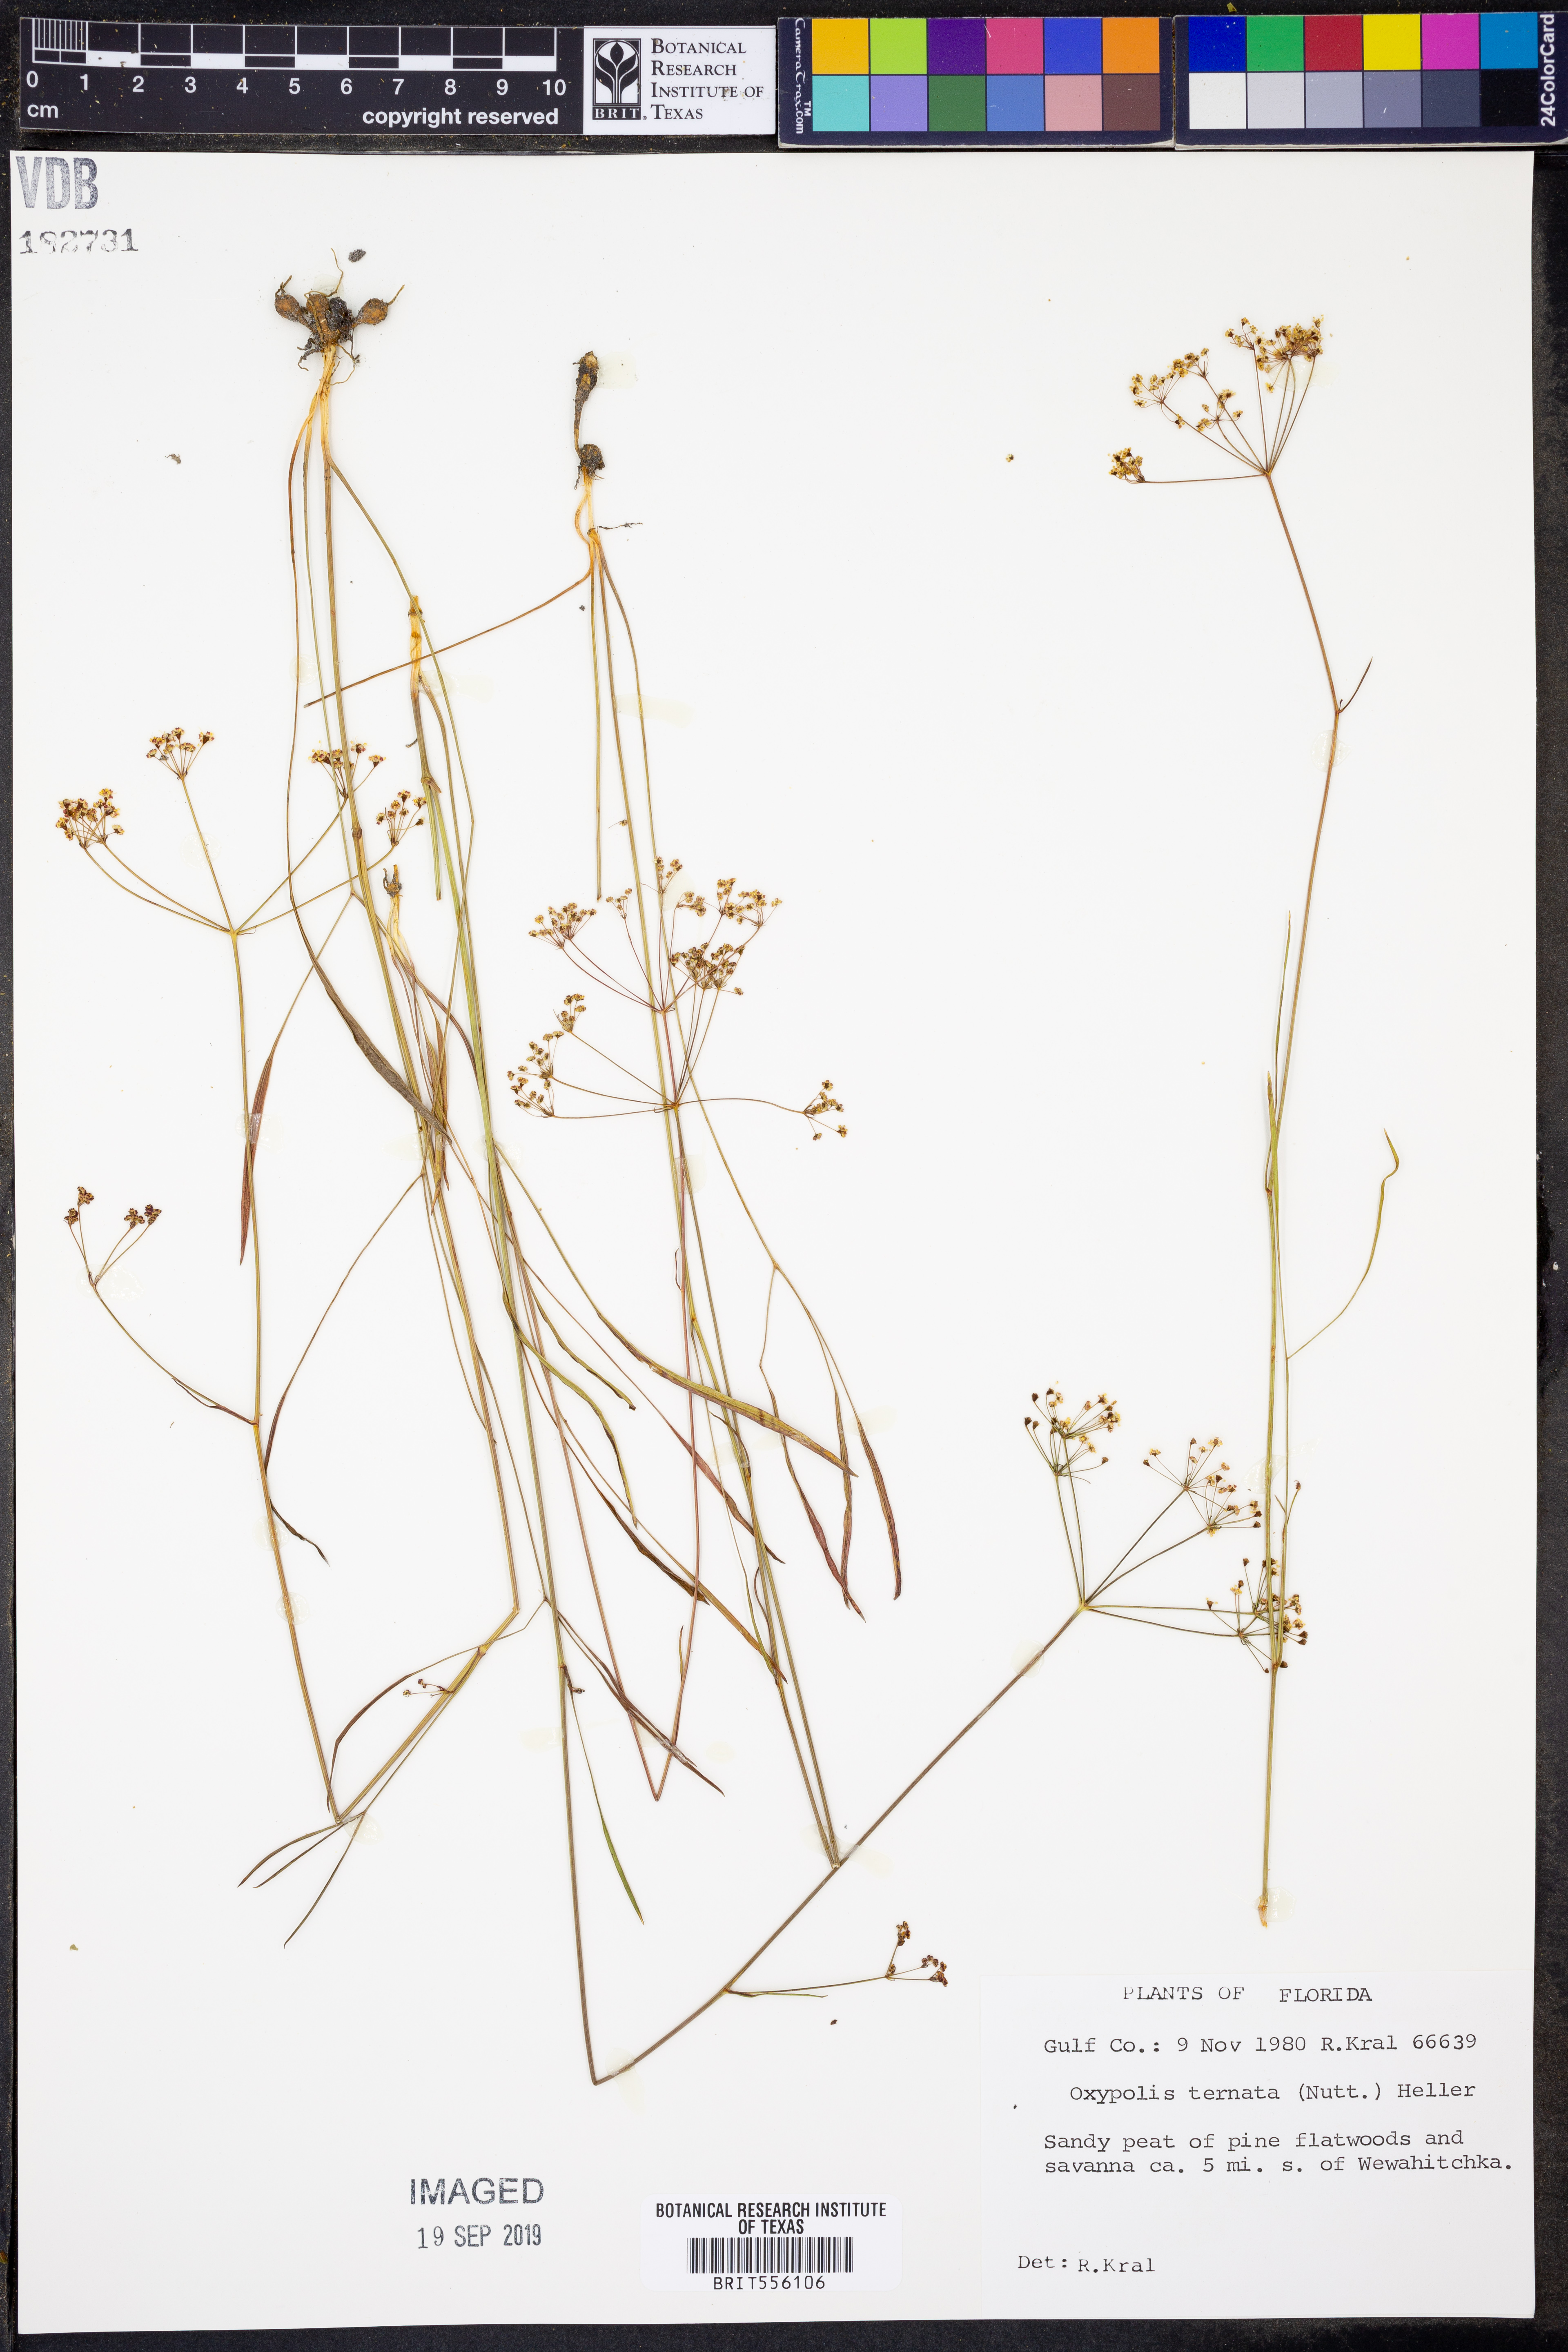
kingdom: Plantae
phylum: Tracheophyta
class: Magnoliopsida
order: Apiales
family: Apiaceae
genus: Oxypolis
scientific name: Oxypolis ternata
